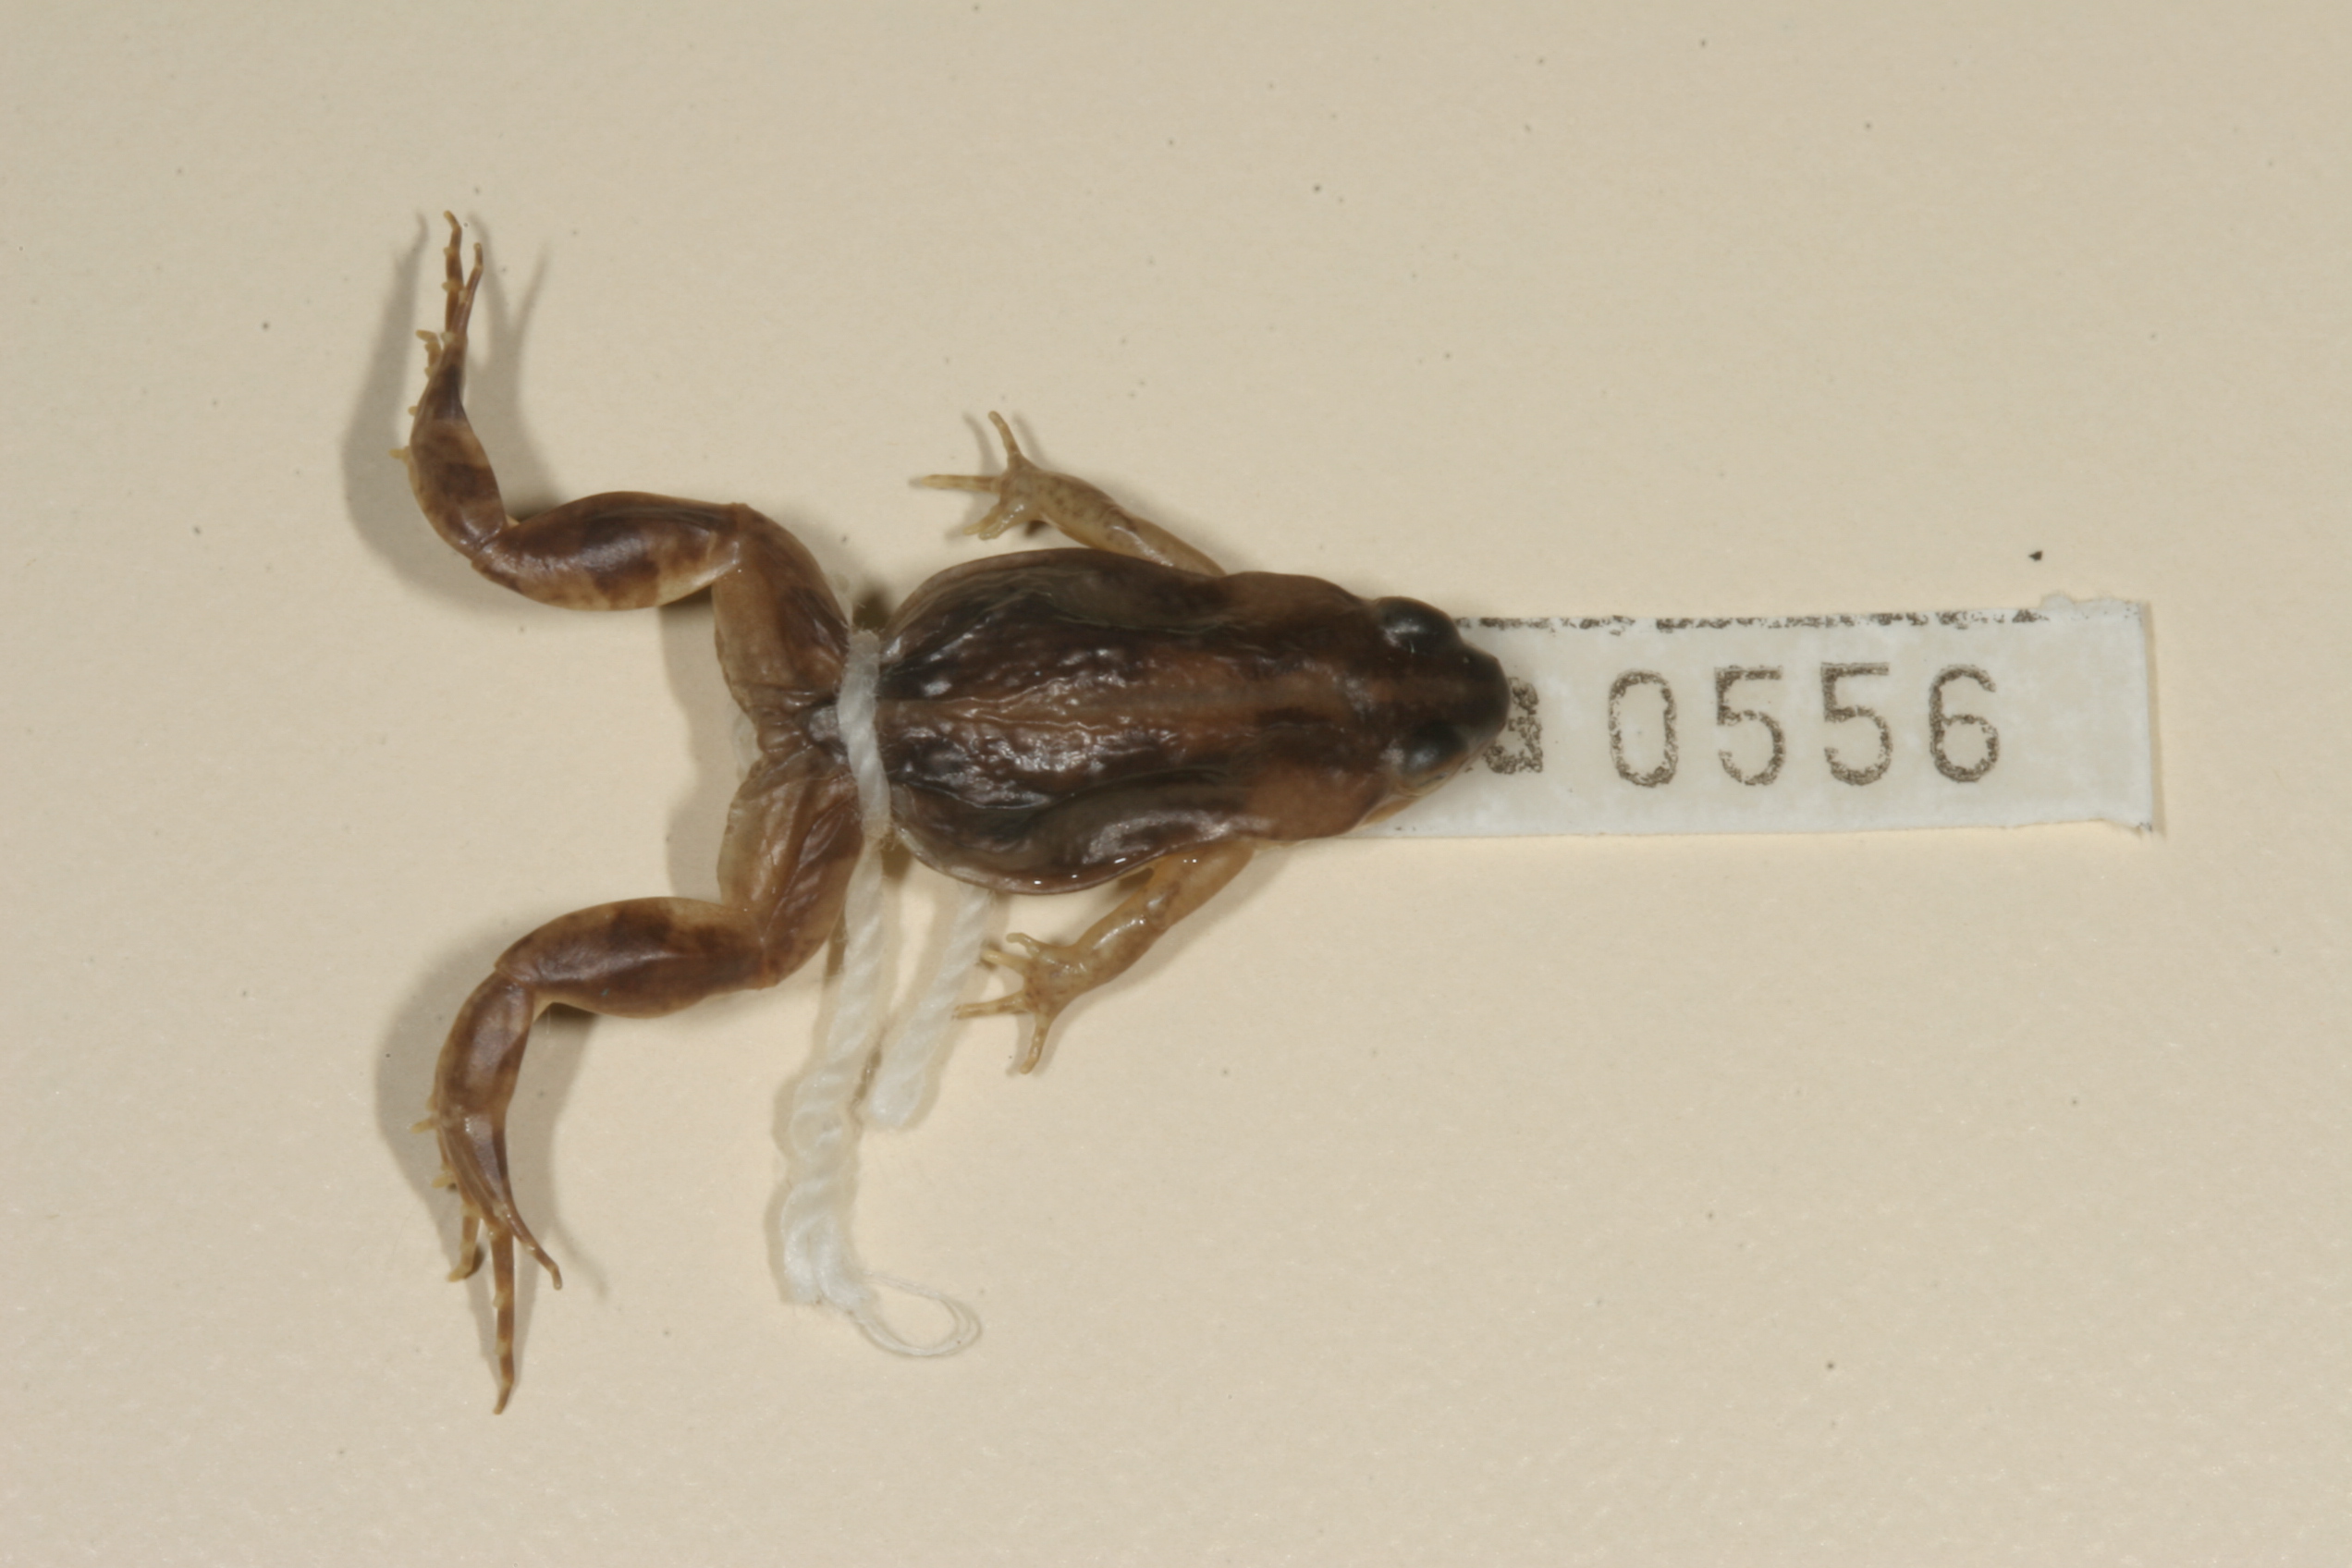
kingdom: Animalia
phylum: Chordata
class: Amphibia
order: Anura
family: Pyxicephalidae
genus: Cacosternum
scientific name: Cacosternum boettgeri
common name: Boettger's frog
